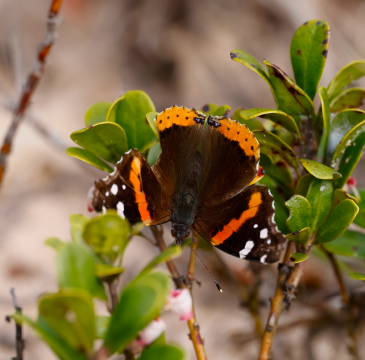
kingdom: Animalia
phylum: Arthropoda
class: Insecta
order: Lepidoptera
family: Nymphalidae
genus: Vanessa
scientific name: Vanessa atalanta
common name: Red Admiral
